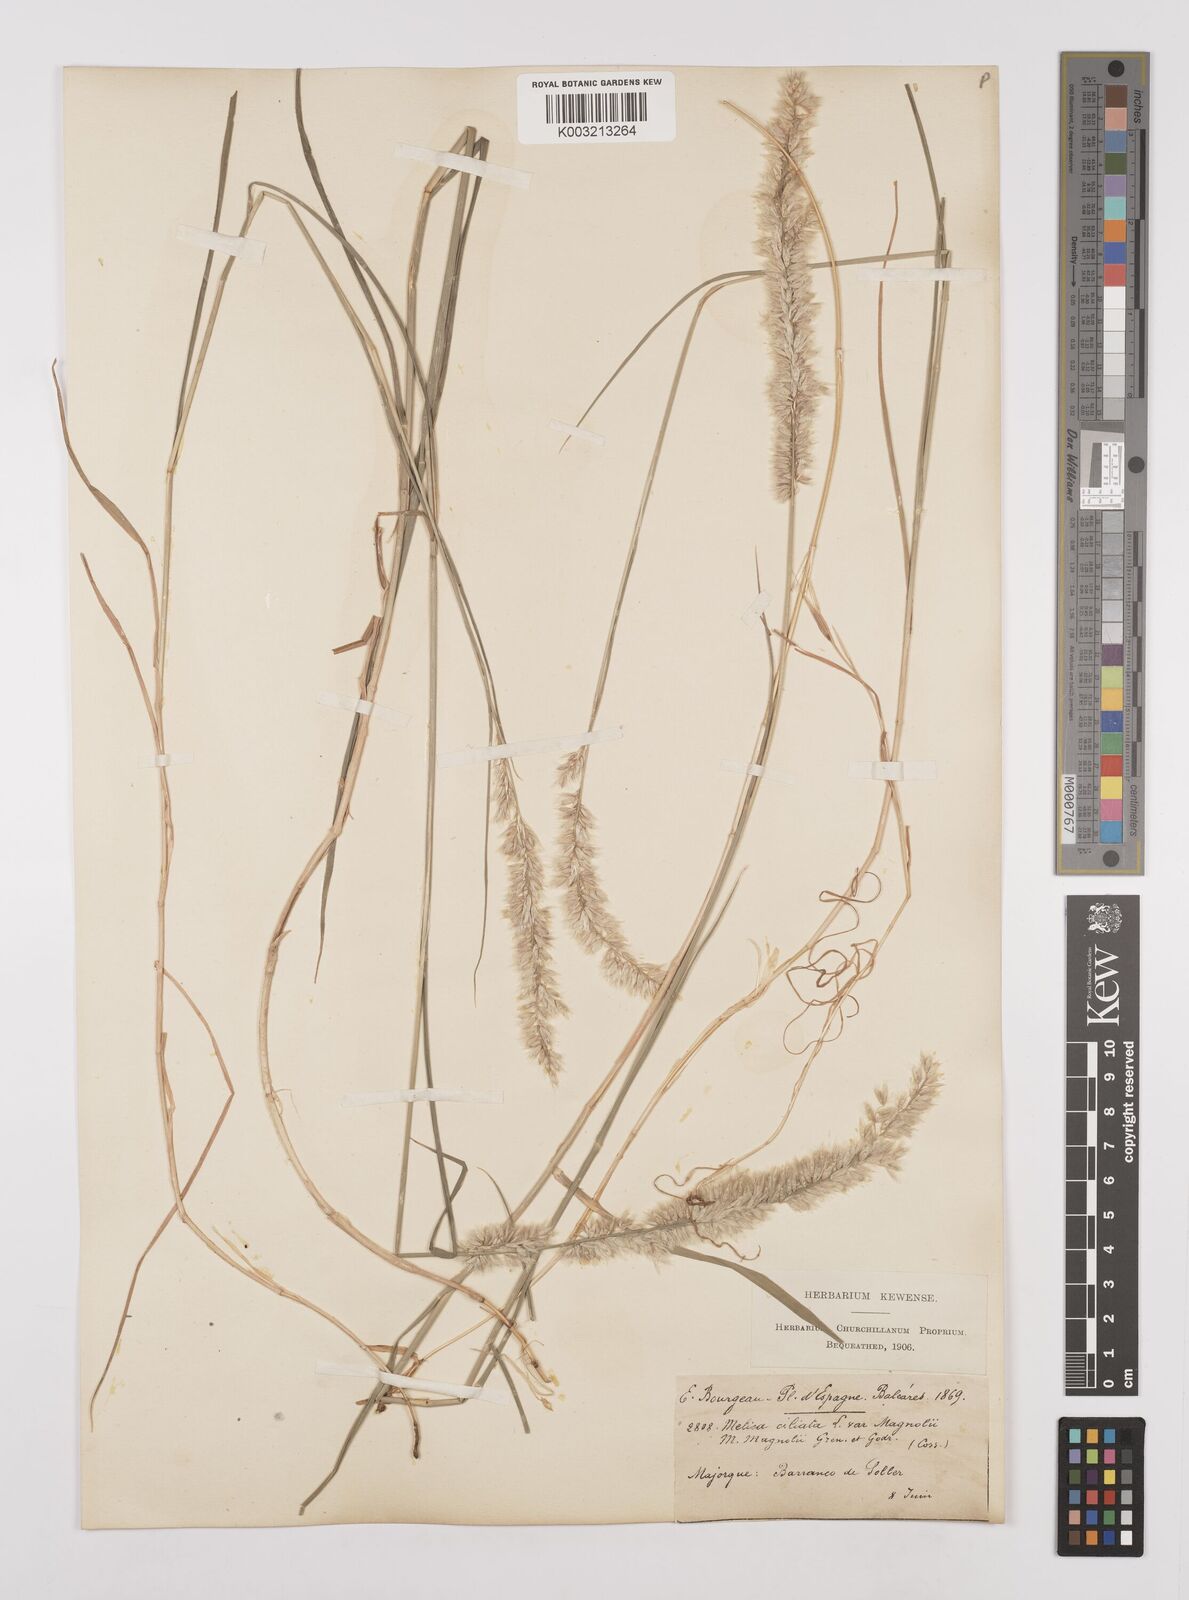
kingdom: Plantae
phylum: Tracheophyta
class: Liliopsida
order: Poales
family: Poaceae
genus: Melica
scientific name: Melica ciliata
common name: Hairy melicgrass
